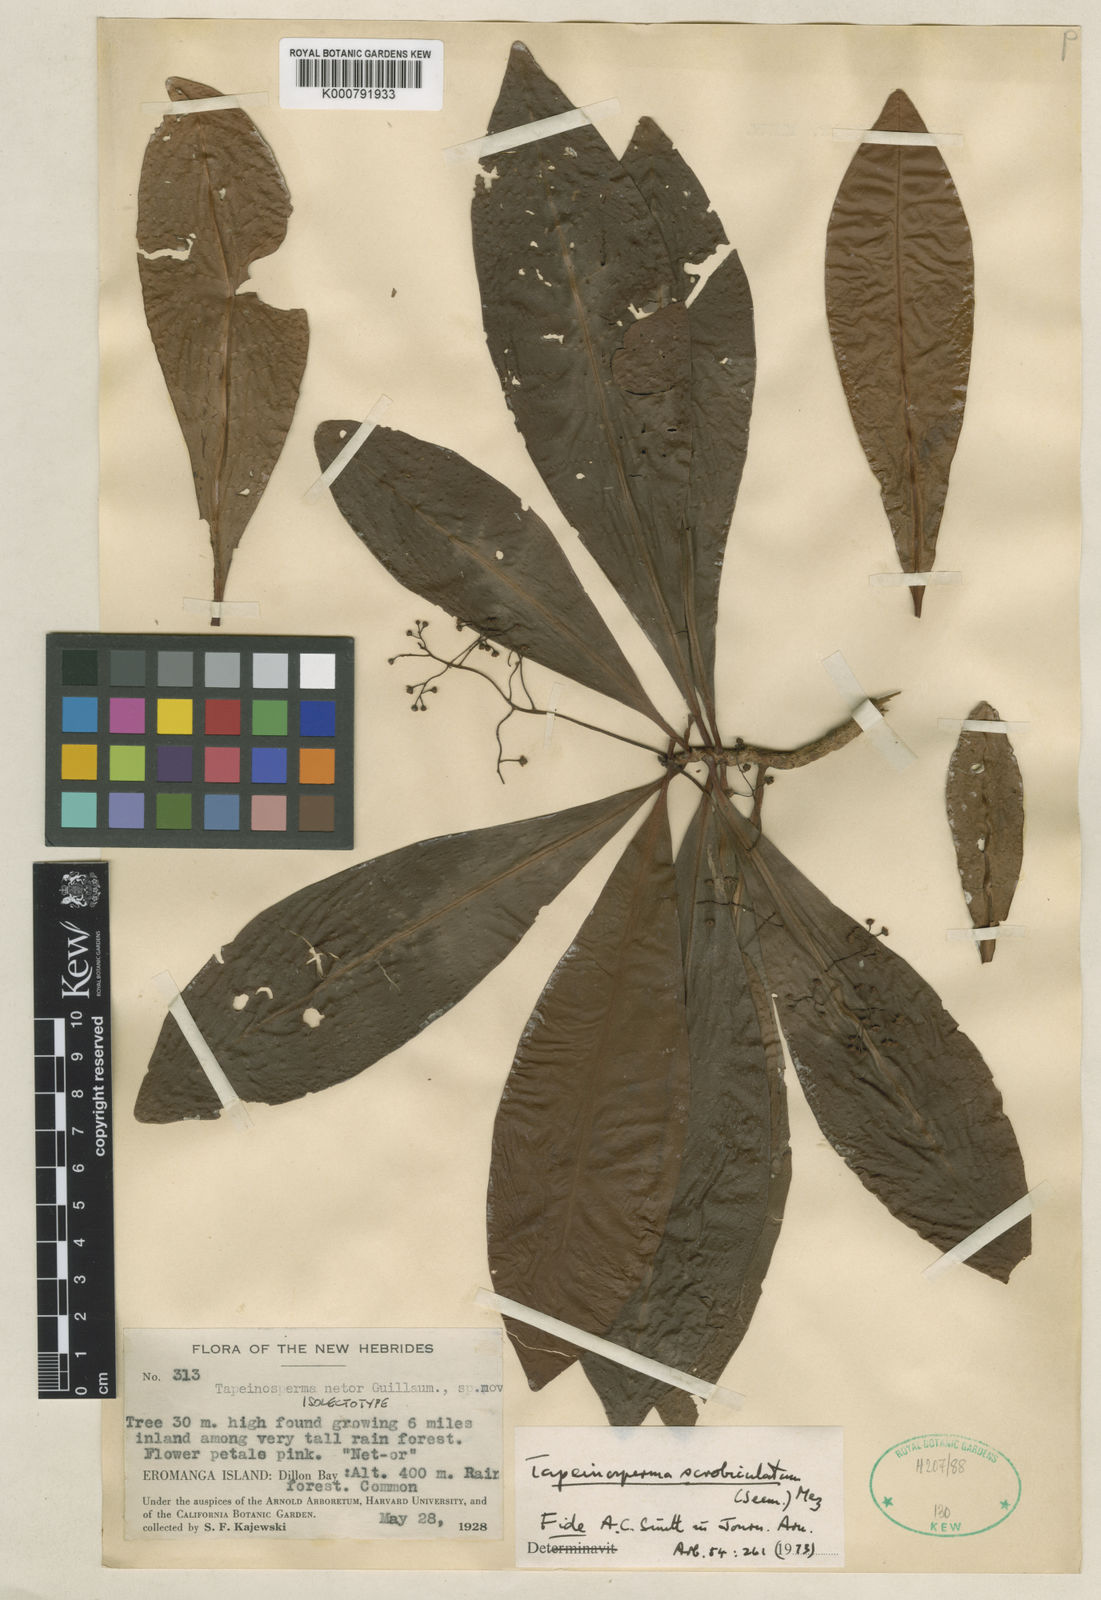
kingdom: Plantae
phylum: Tracheophyta
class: Magnoliopsida
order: Ericales
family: Primulaceae
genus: Tapeinosperma
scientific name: Tapeinosperma scrobiculatum
